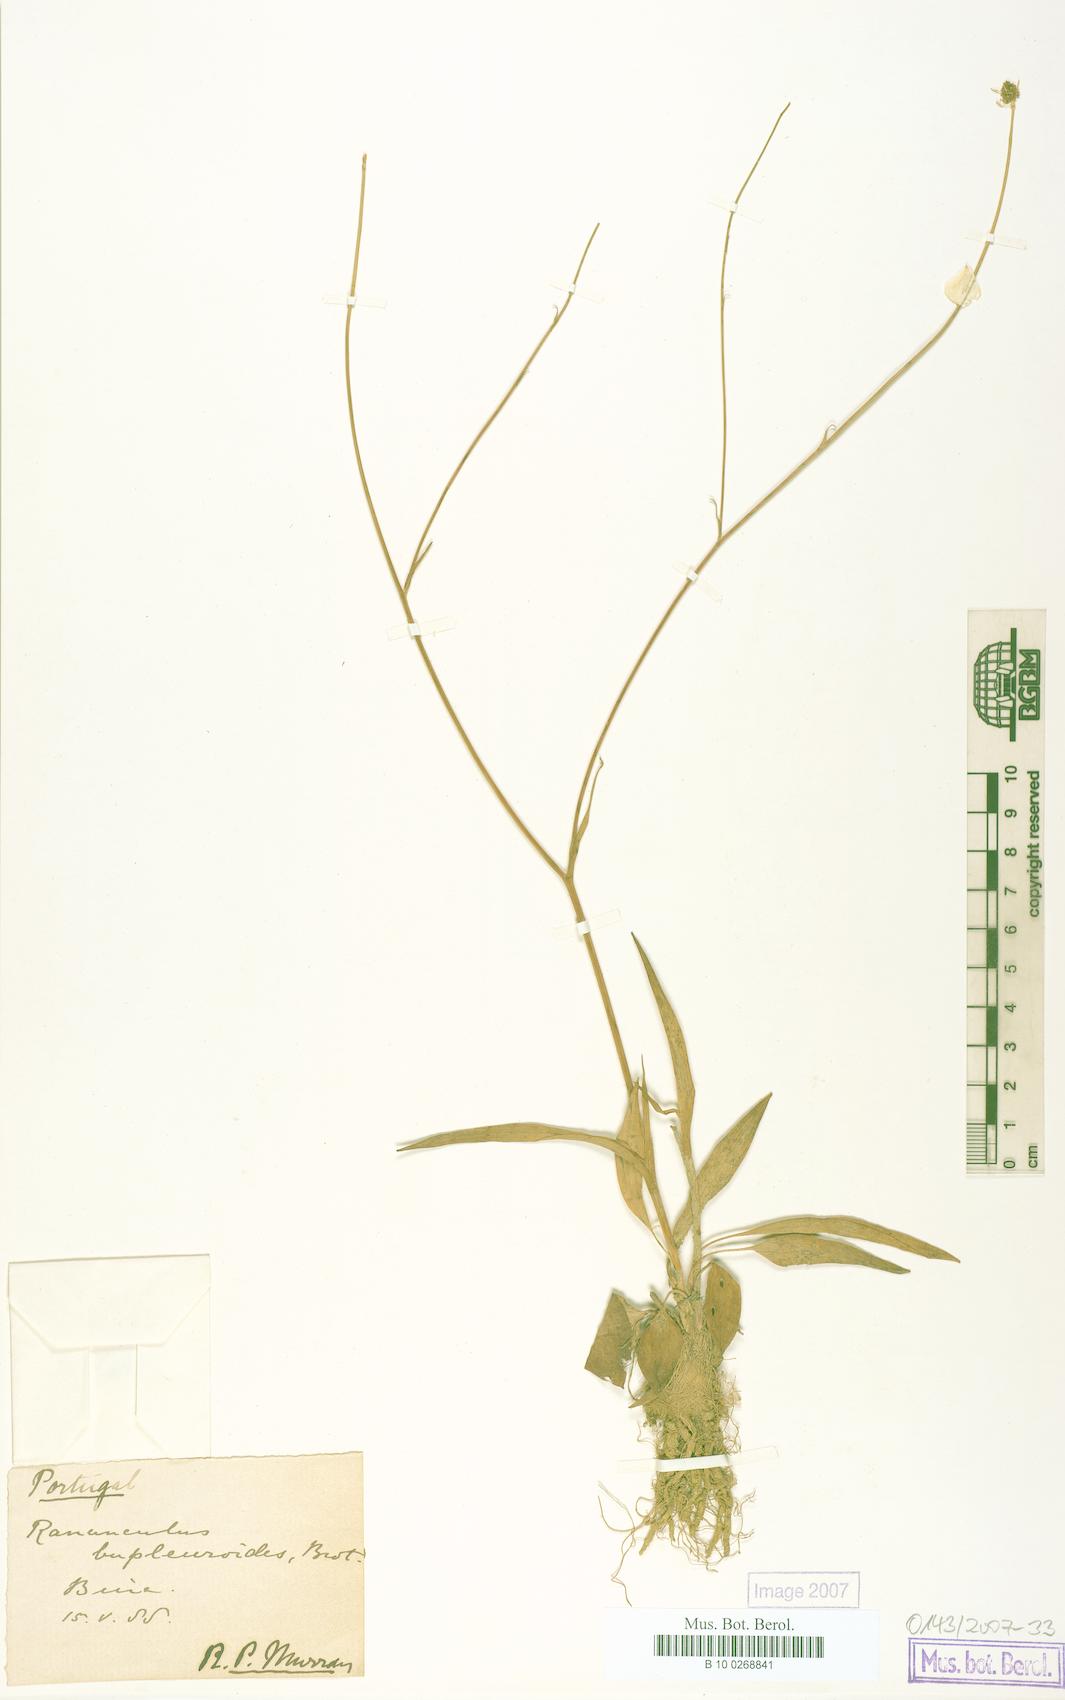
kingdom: Plantae
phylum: Tracheophyta
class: Magnoliopsida
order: Ranunculales
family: Ranunculaceae
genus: Ranunculus
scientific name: Ranunculus bupleuroides
